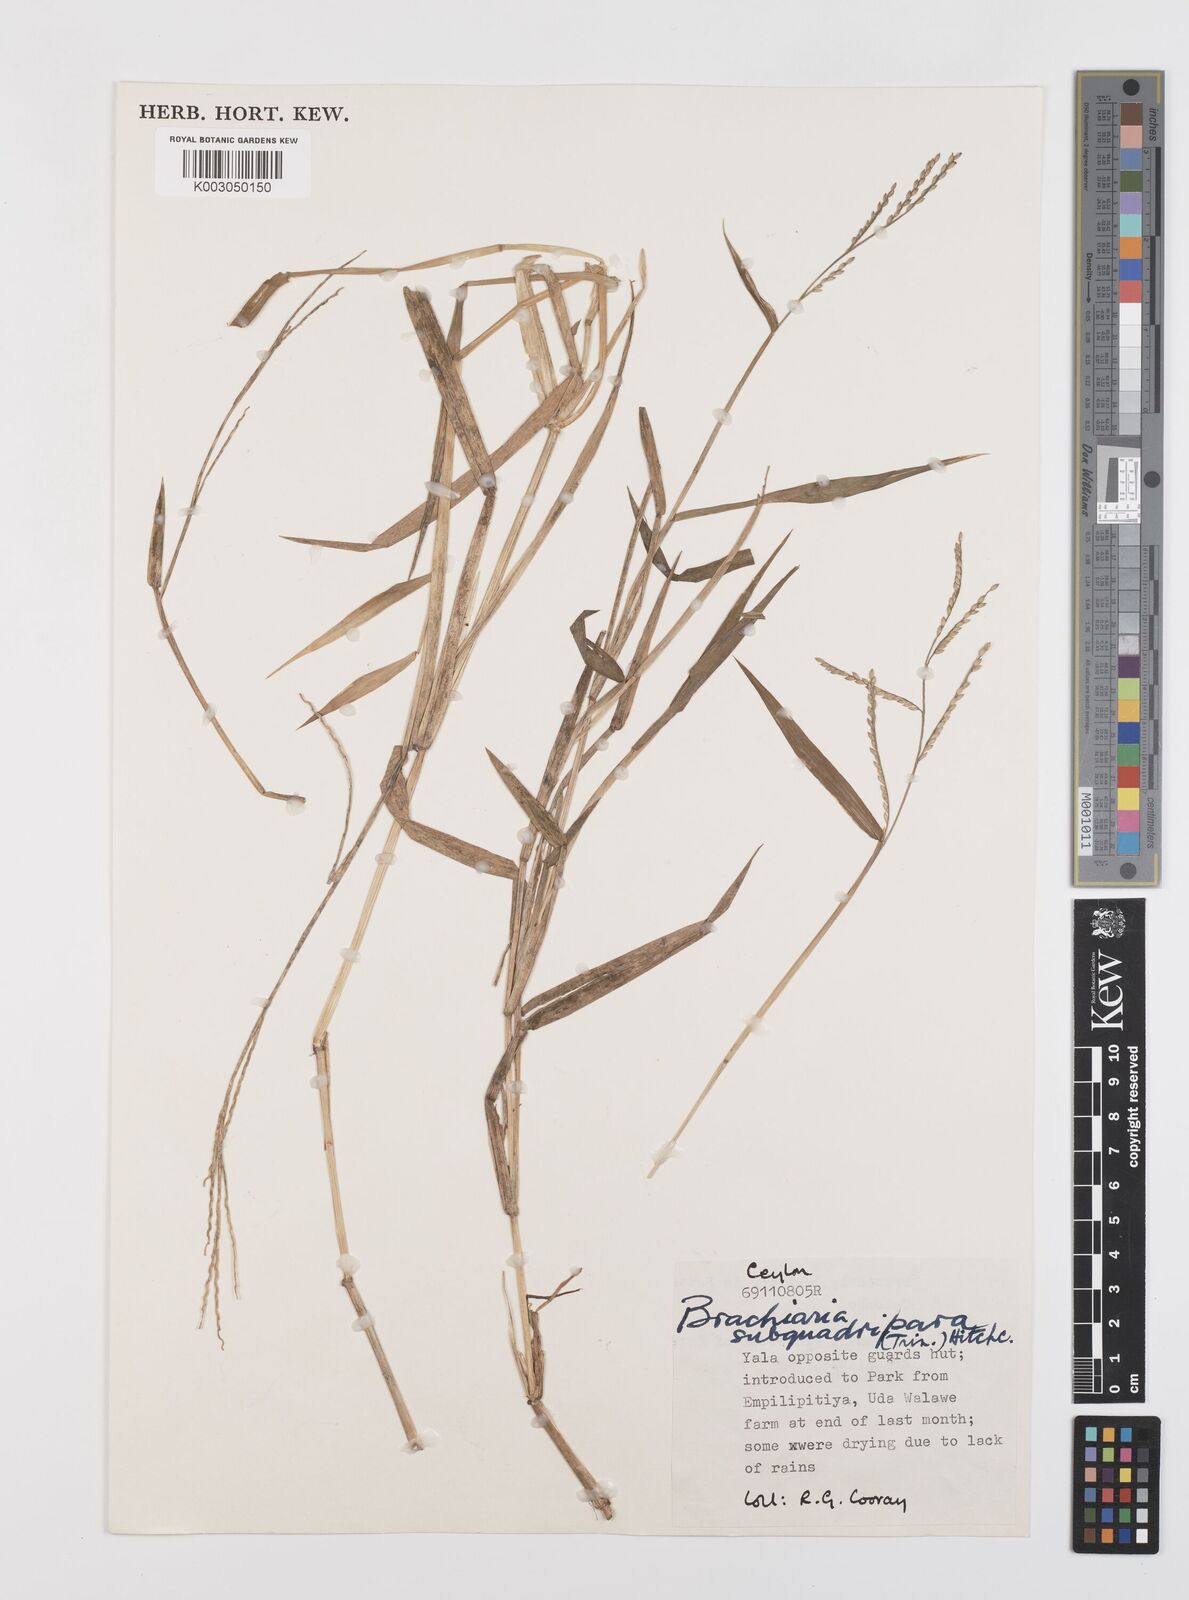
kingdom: Plantae
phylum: Tracheophyta
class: Liliopsida
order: Poales
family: Poaceae
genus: Urochloa
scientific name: Urochloa subquadripara
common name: Armgrass millet
